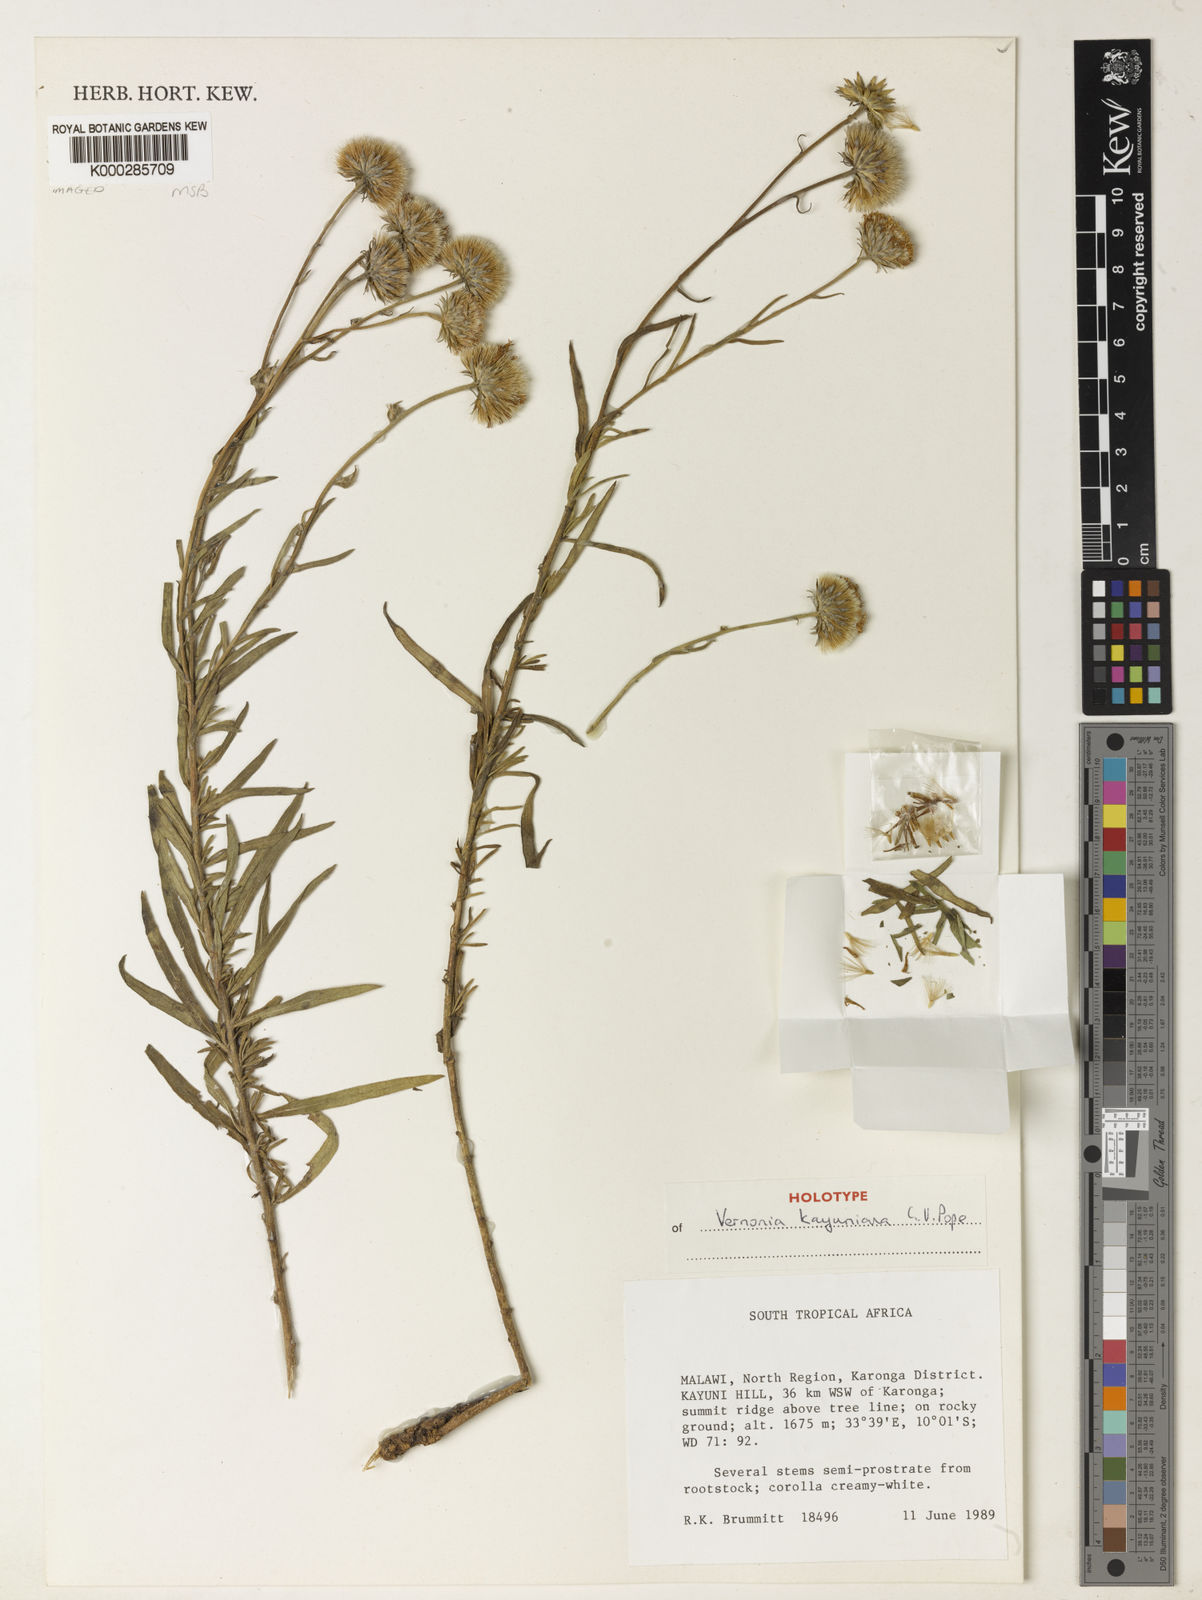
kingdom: Plantae
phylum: Tracheophyta
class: Magnoliopsida
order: Asterales
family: Asteraceae
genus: Vernonia
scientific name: Vernonia kayuniana
